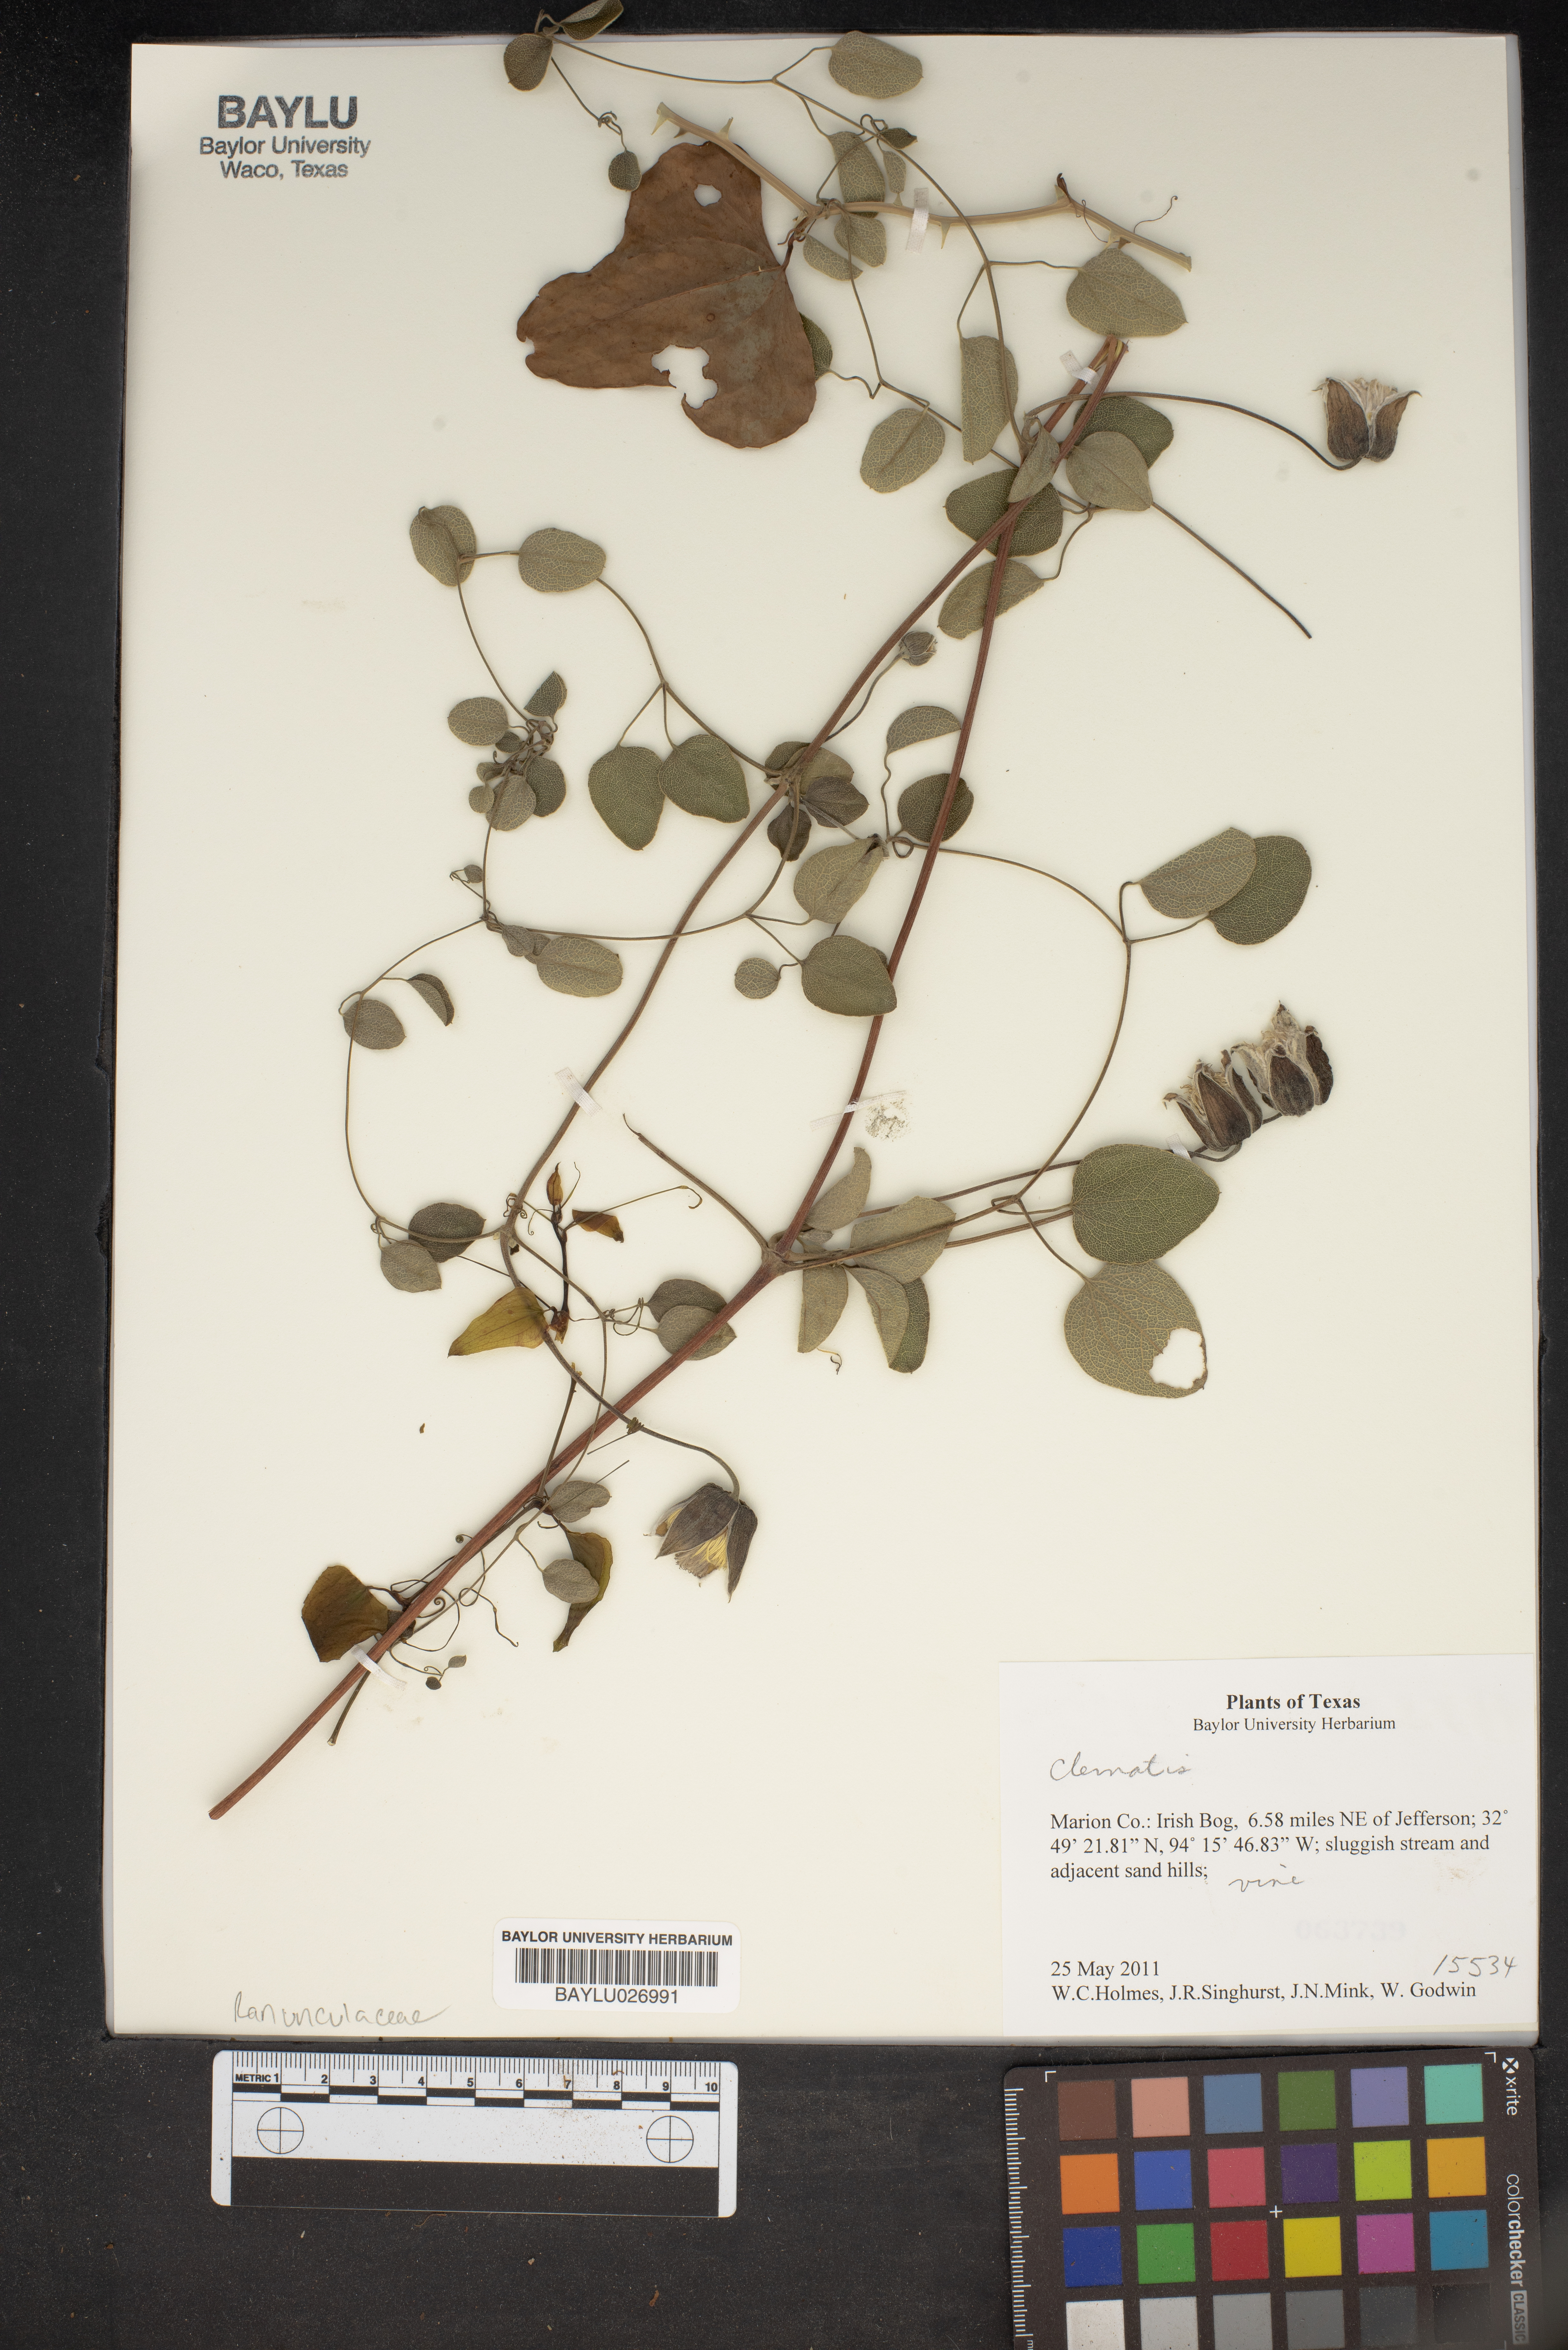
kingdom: Plantae
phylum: Tracheophyta
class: Magnoliopsida
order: Ranunculales
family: Ranunculaceae
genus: Clematis
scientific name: Clematis
